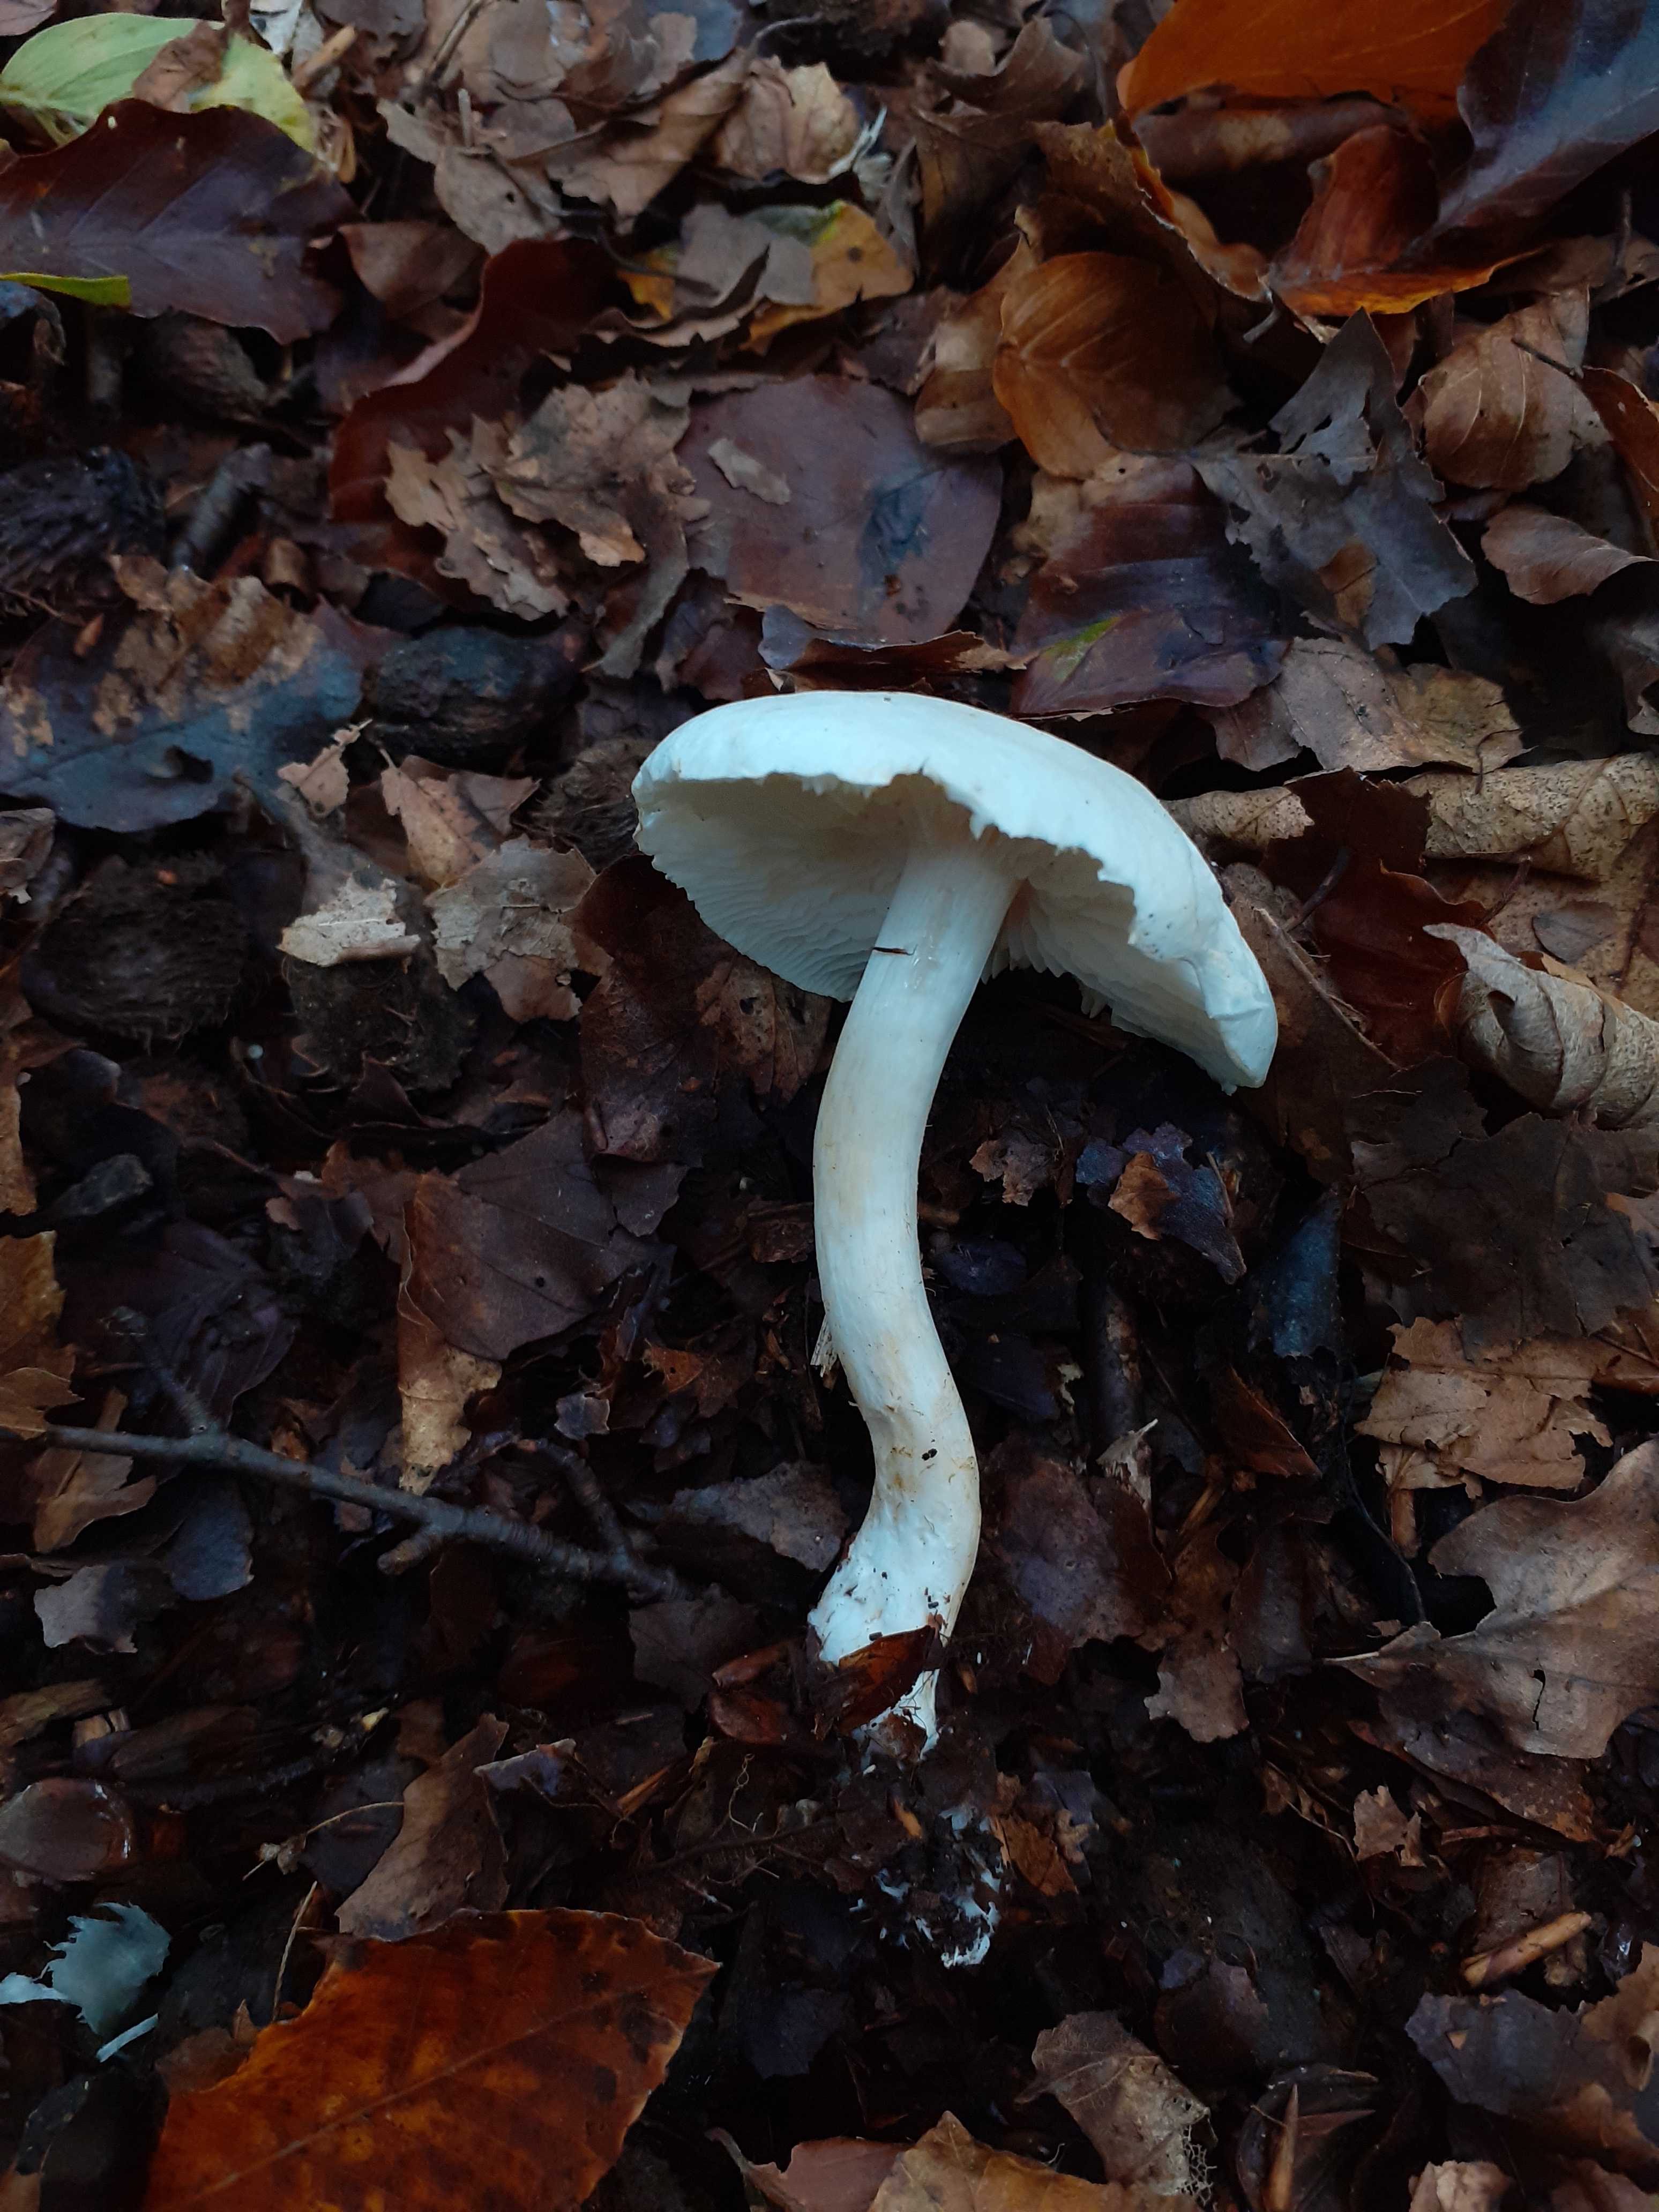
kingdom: Fungi
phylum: Basidiomycota
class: Agaricomycetes
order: Agaricales
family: Tricholomataceae
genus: Tricholoma
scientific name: Tricholoma lascivum
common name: stinkende ridderhat
